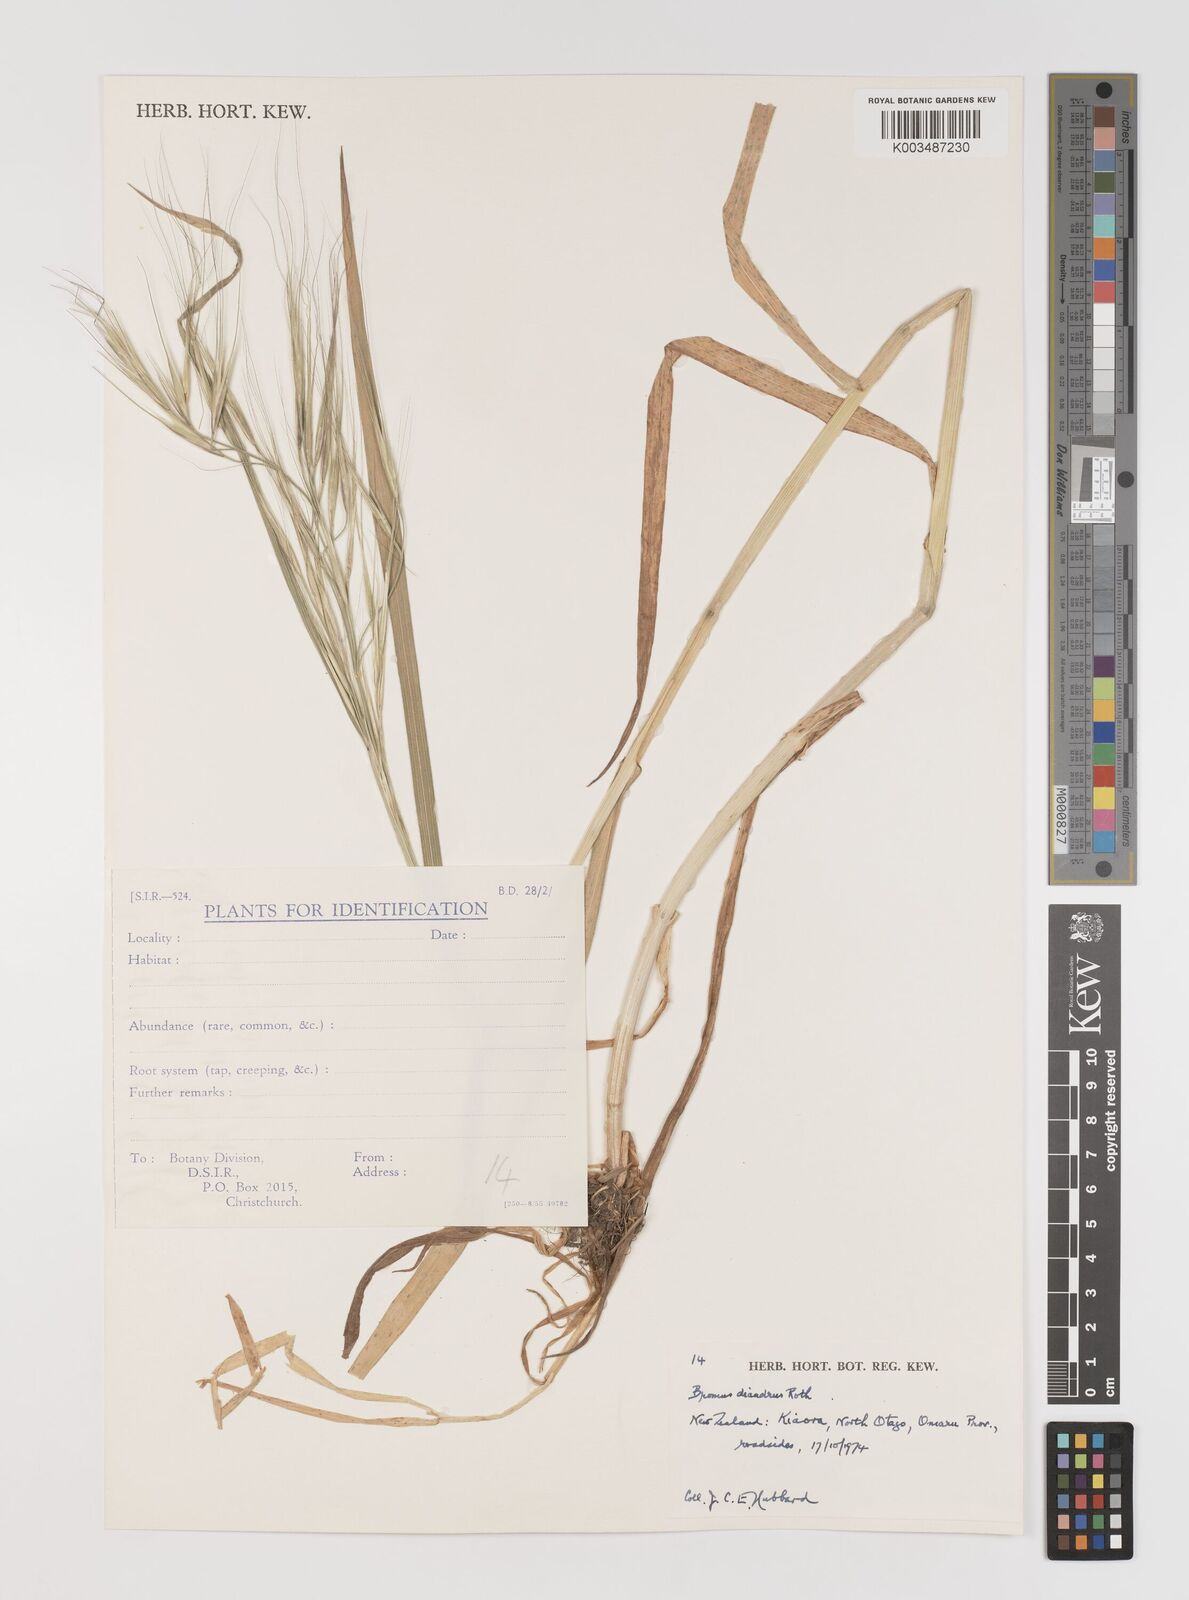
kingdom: Plantae
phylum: Tracheophyta
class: Liliopsida
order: Poales
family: Poaceae
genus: Bromus
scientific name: Bromus diandrus
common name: Ripgut brome
